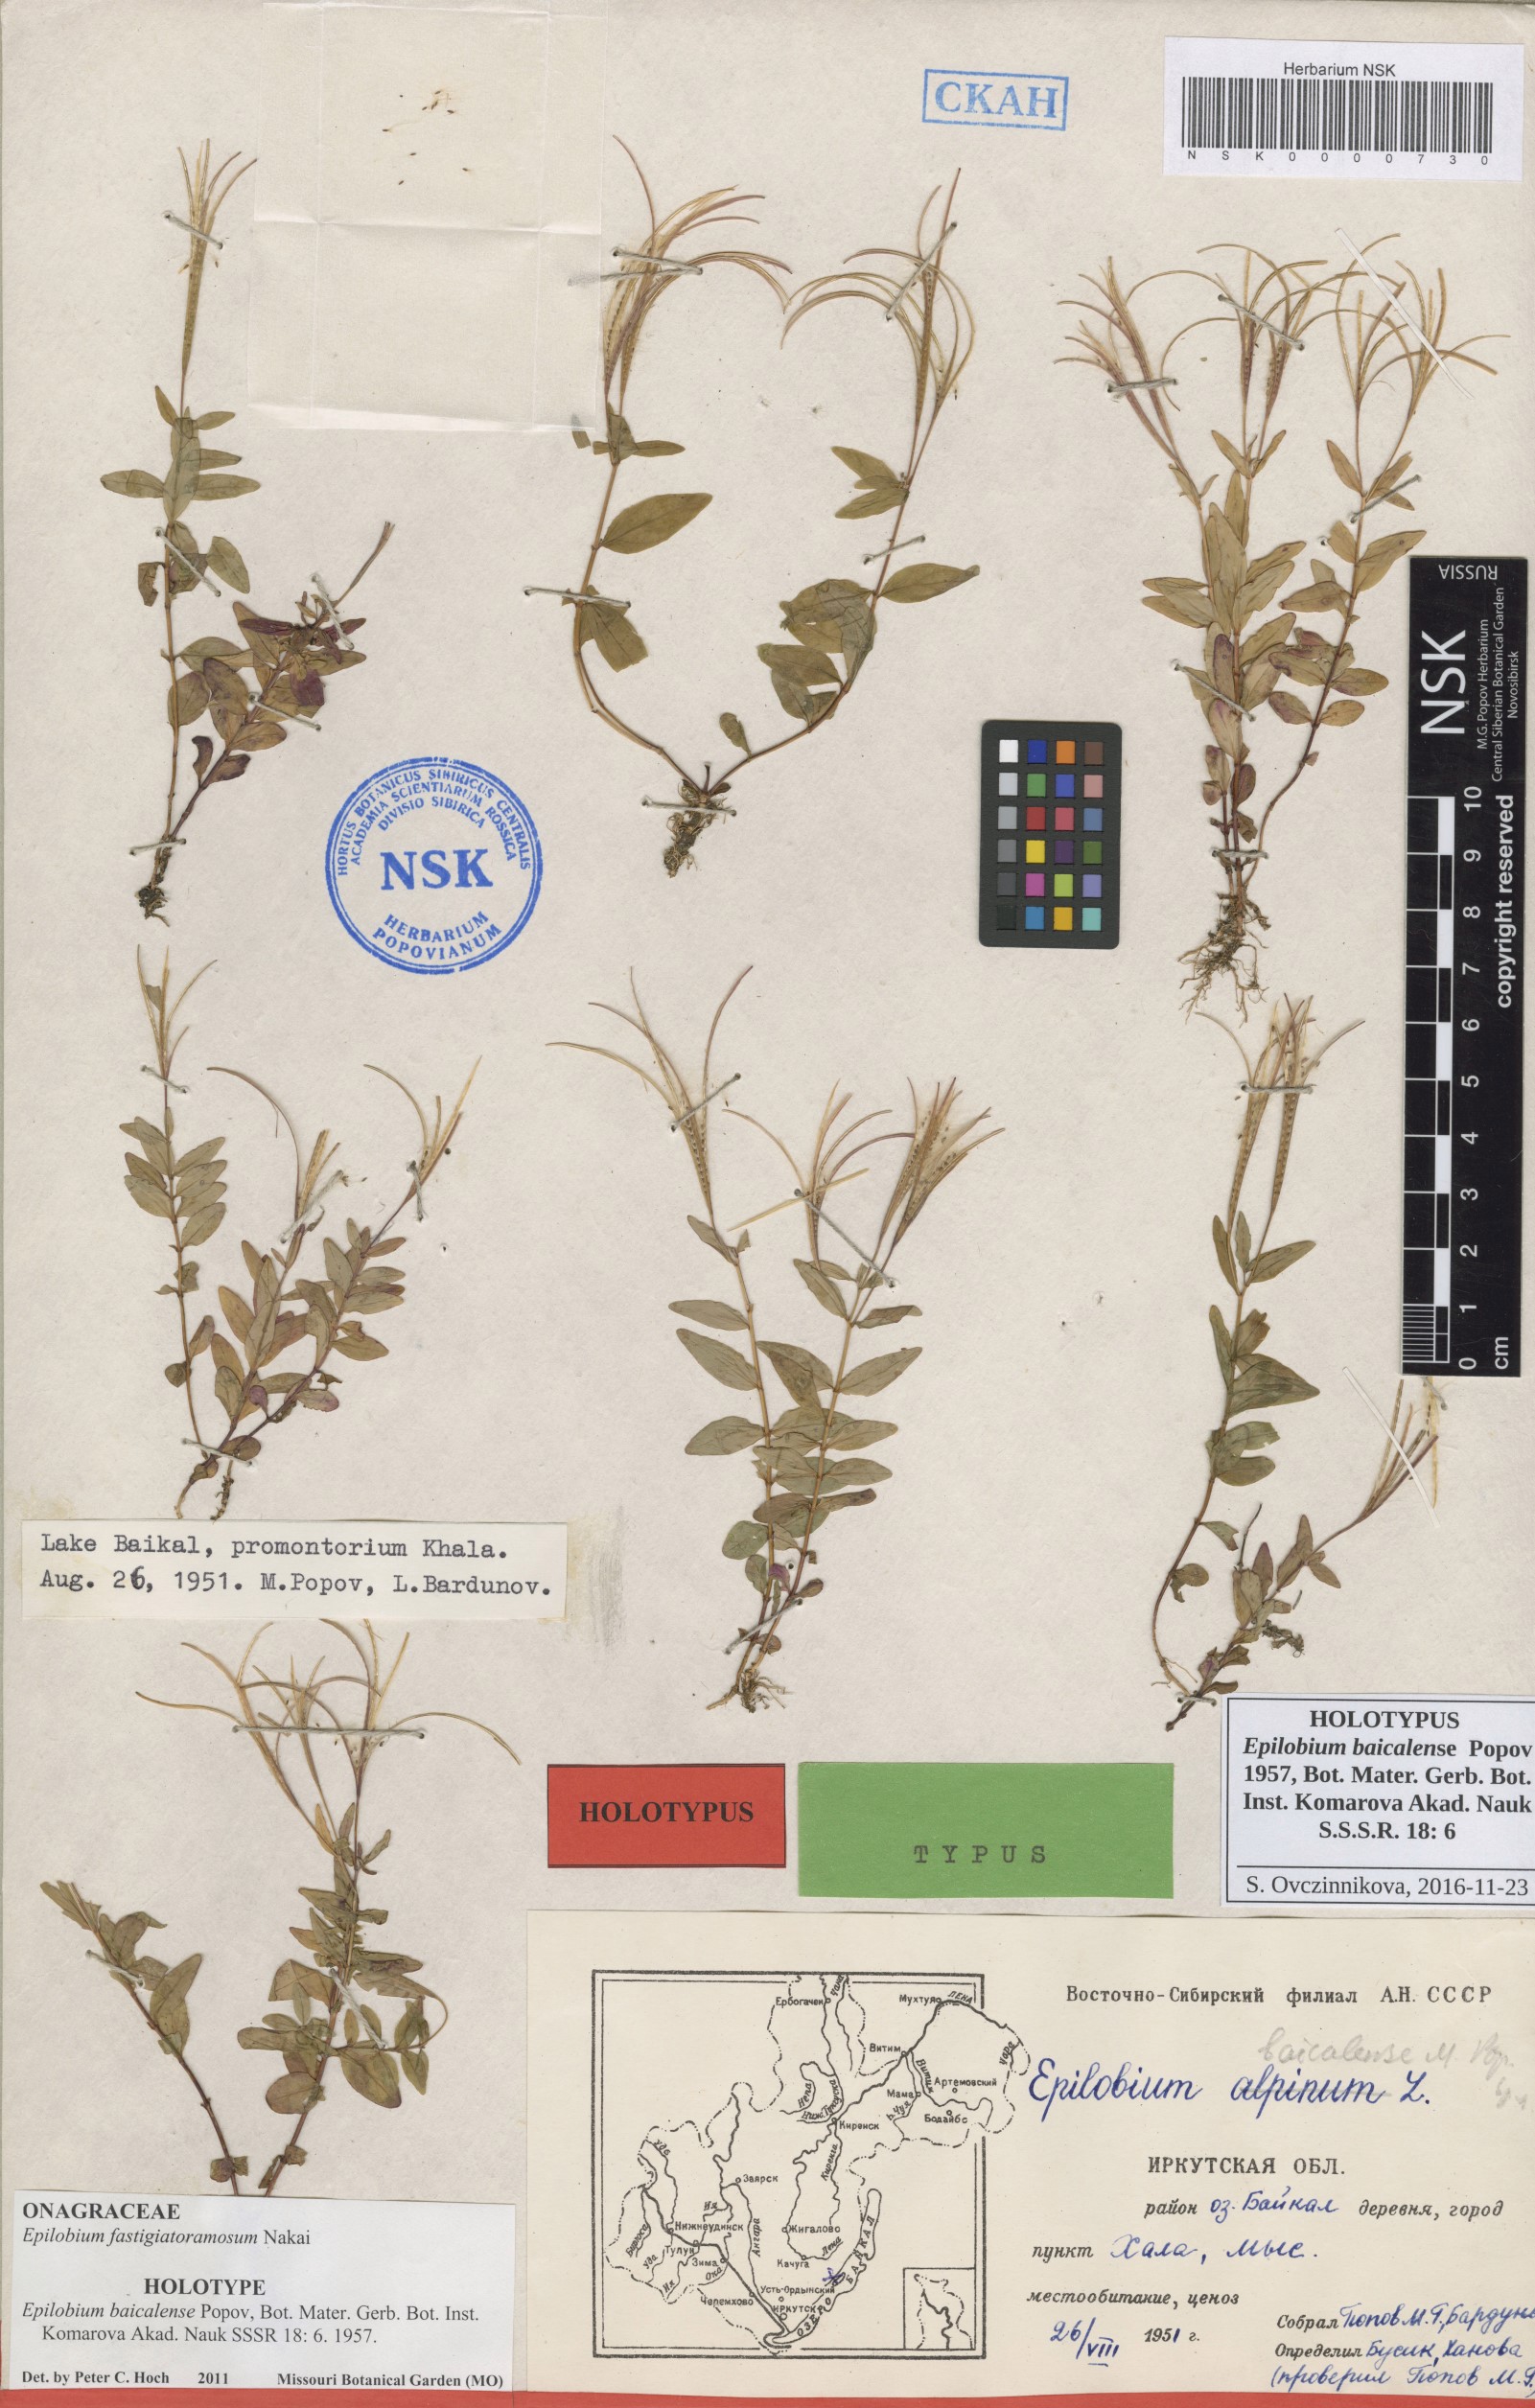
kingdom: Plantae
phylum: Tracheophyta
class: Magnoliopsida
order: Myrtales
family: Onagraceae
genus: Epilobium
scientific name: Epilobium fastigiatoramosum
